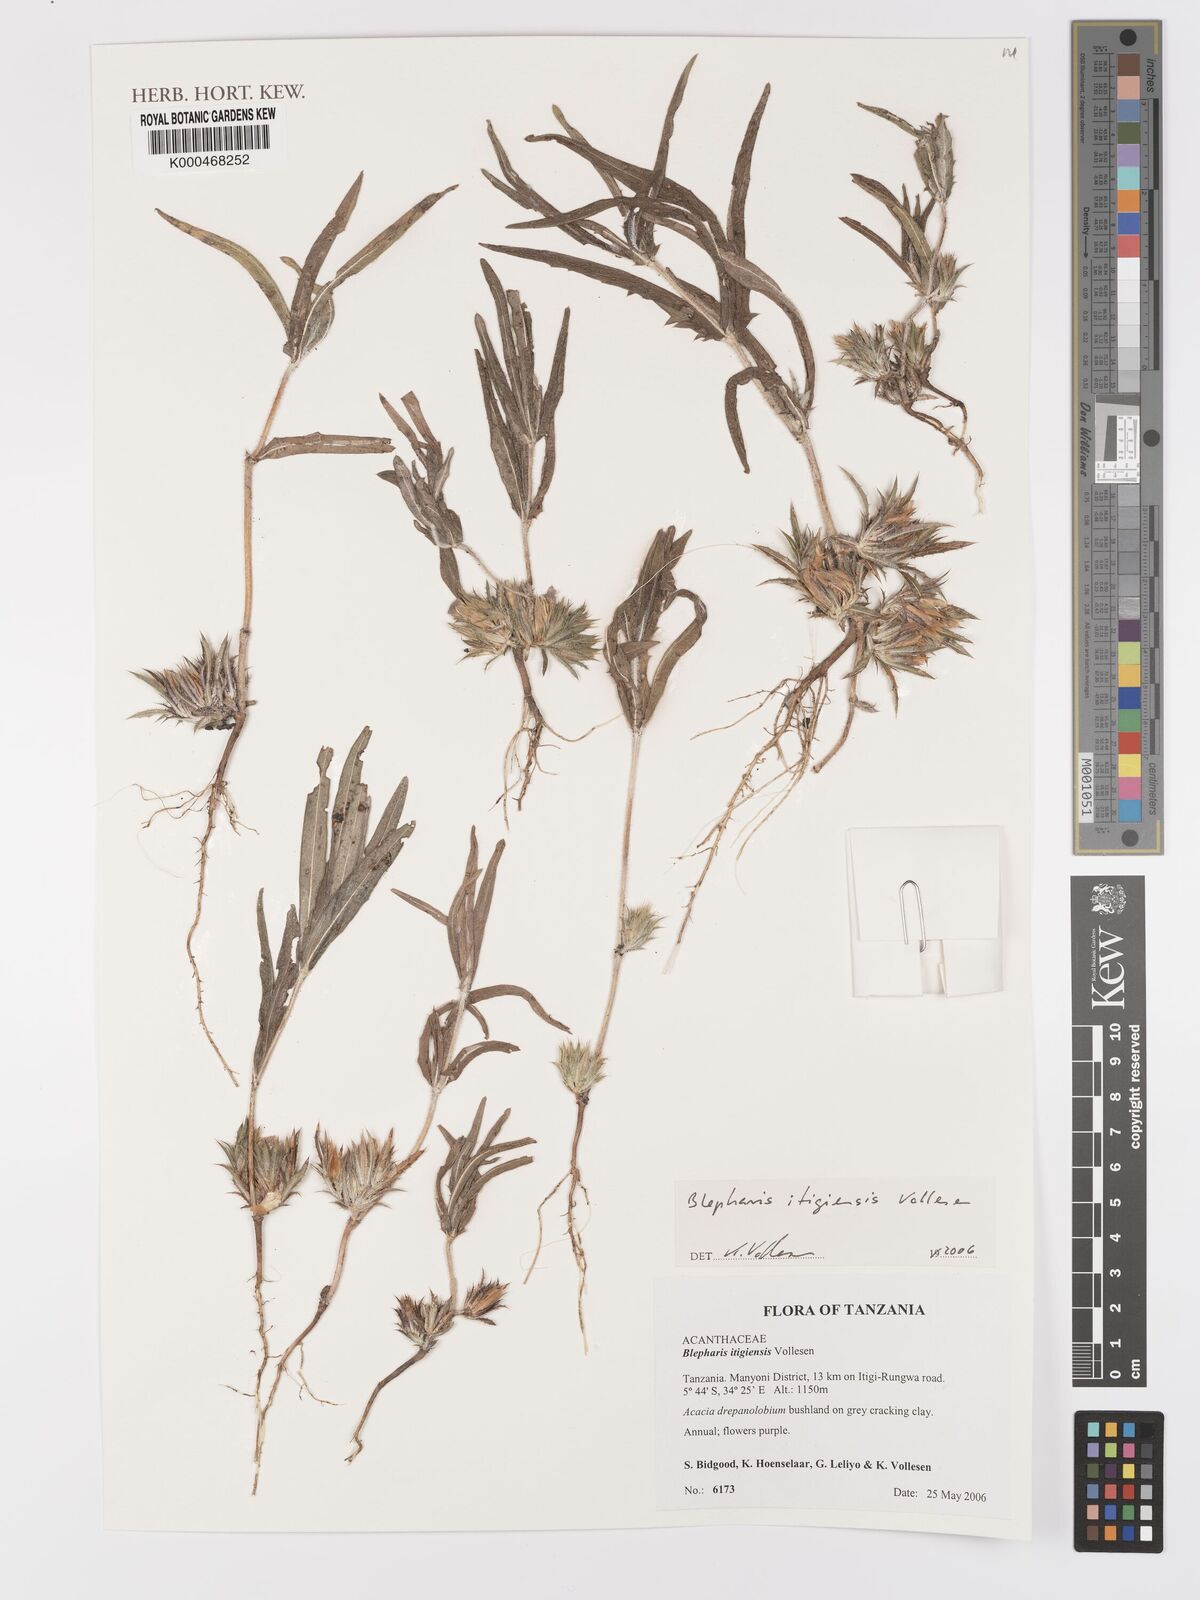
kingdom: Plantae
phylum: Tracheophyta
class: Magnoliopsida
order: Lamiales
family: Acanthaceae
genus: Blepharis
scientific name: Blepharis itigiensis
